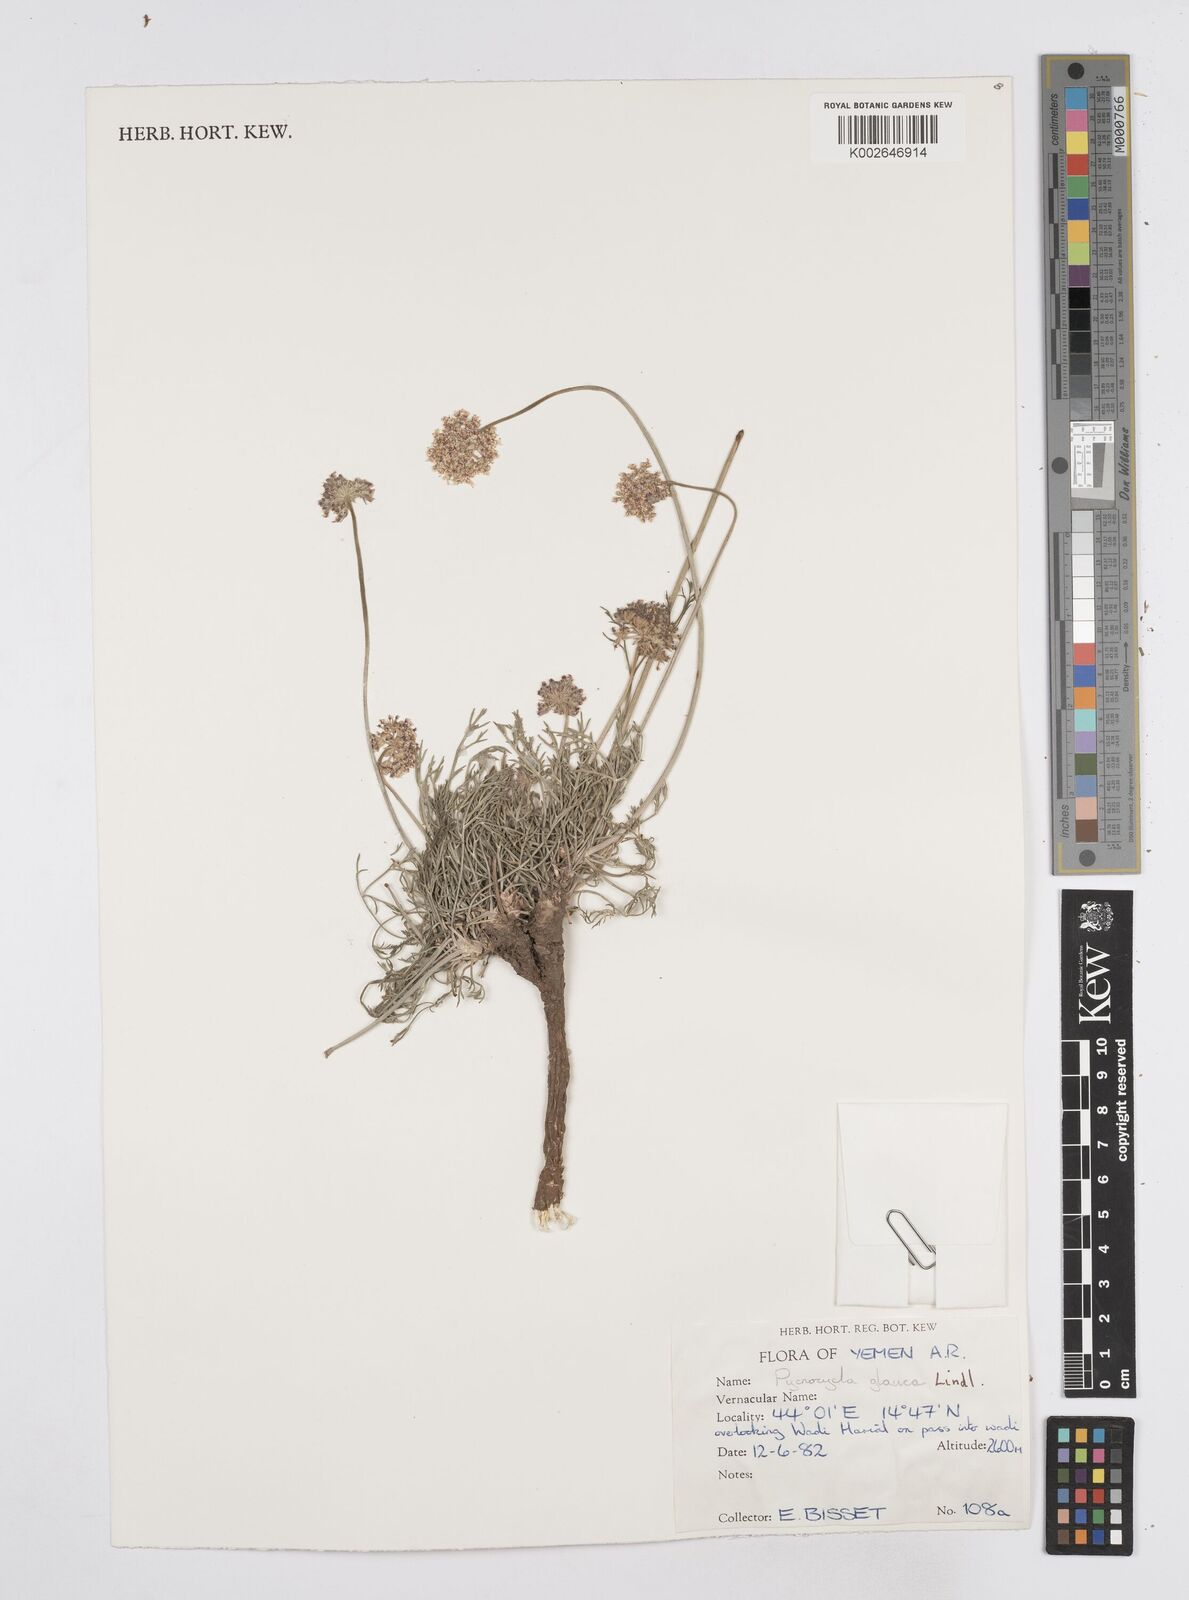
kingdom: Plantae
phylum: Tracheophyta
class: Magnoliopsida
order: Apiales
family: Apiaceae
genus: Pycnocycla
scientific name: Pycnocycla glauca
